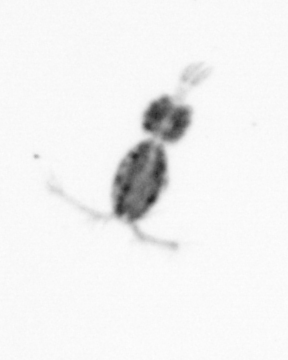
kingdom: Animalia
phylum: Arthropoda
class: Copepoda
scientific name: Copepoda
